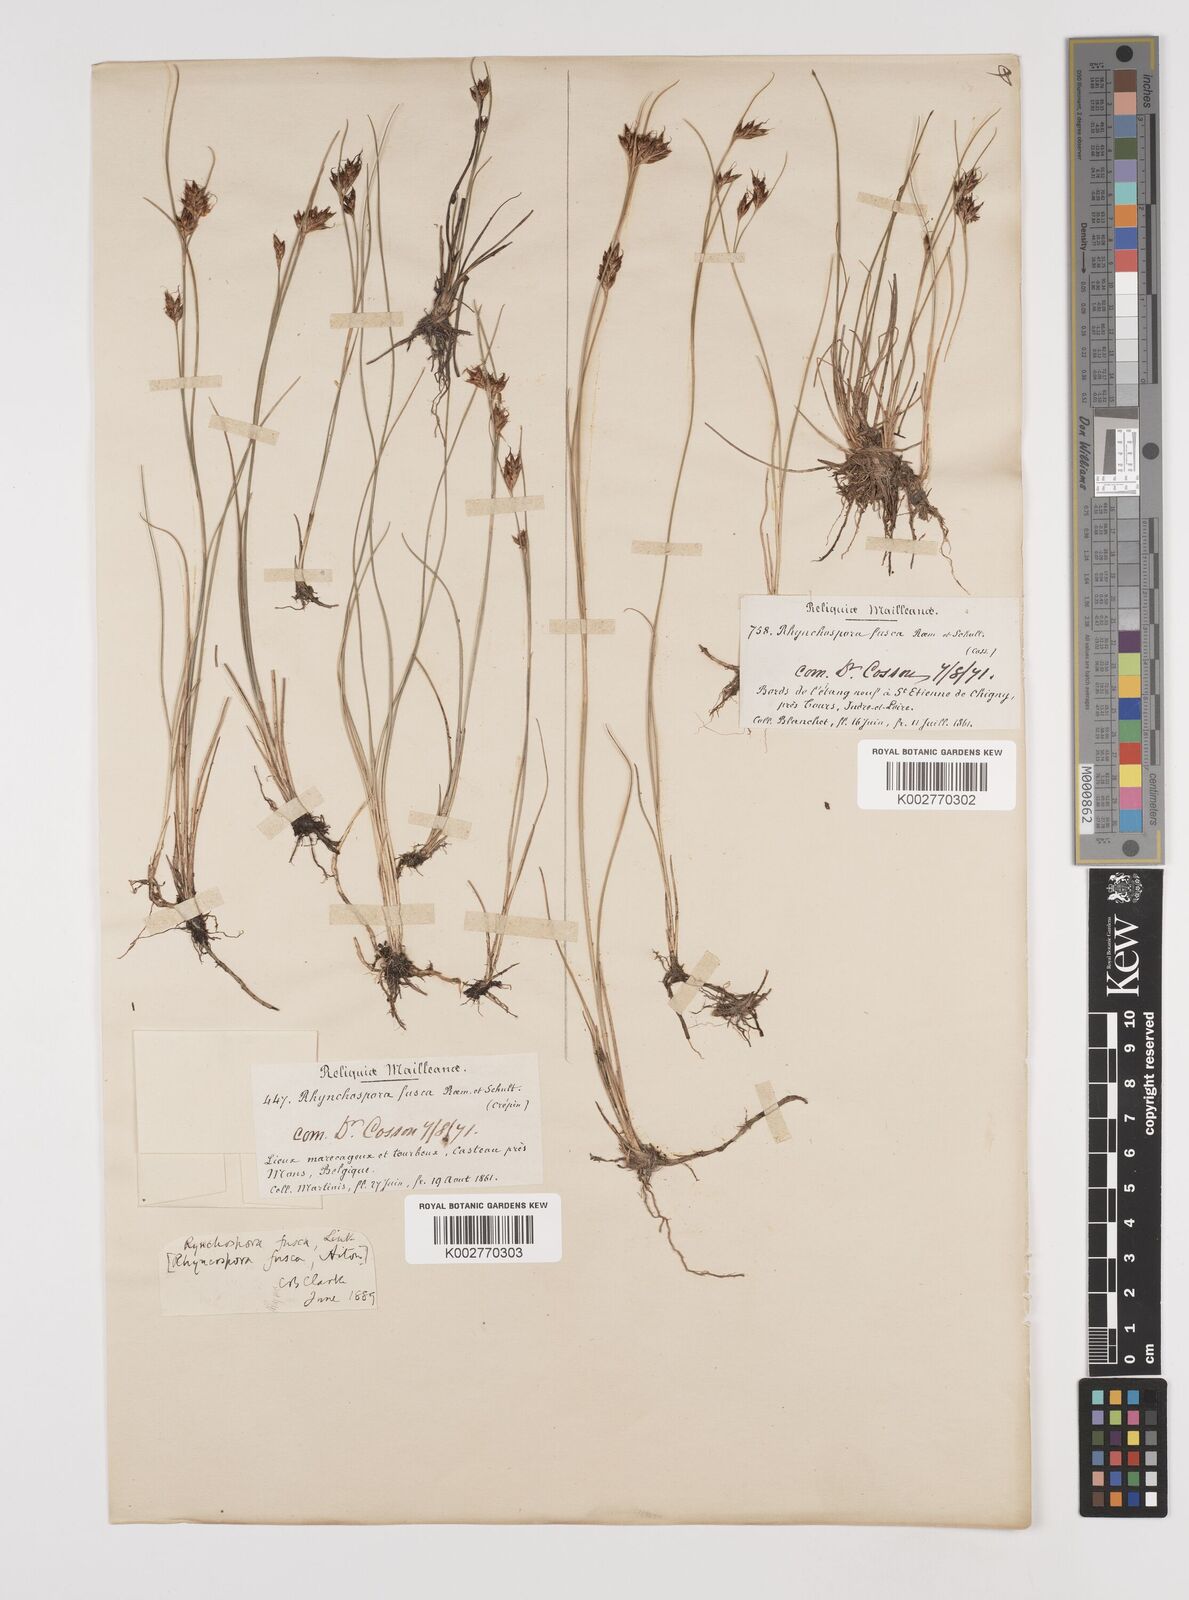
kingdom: Plantae
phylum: Tracheophyta
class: Liliopsida
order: Poales
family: Cyperaceae
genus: Rhynchospora
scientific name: Rhynchospora fusca
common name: Brown beak-sedge
